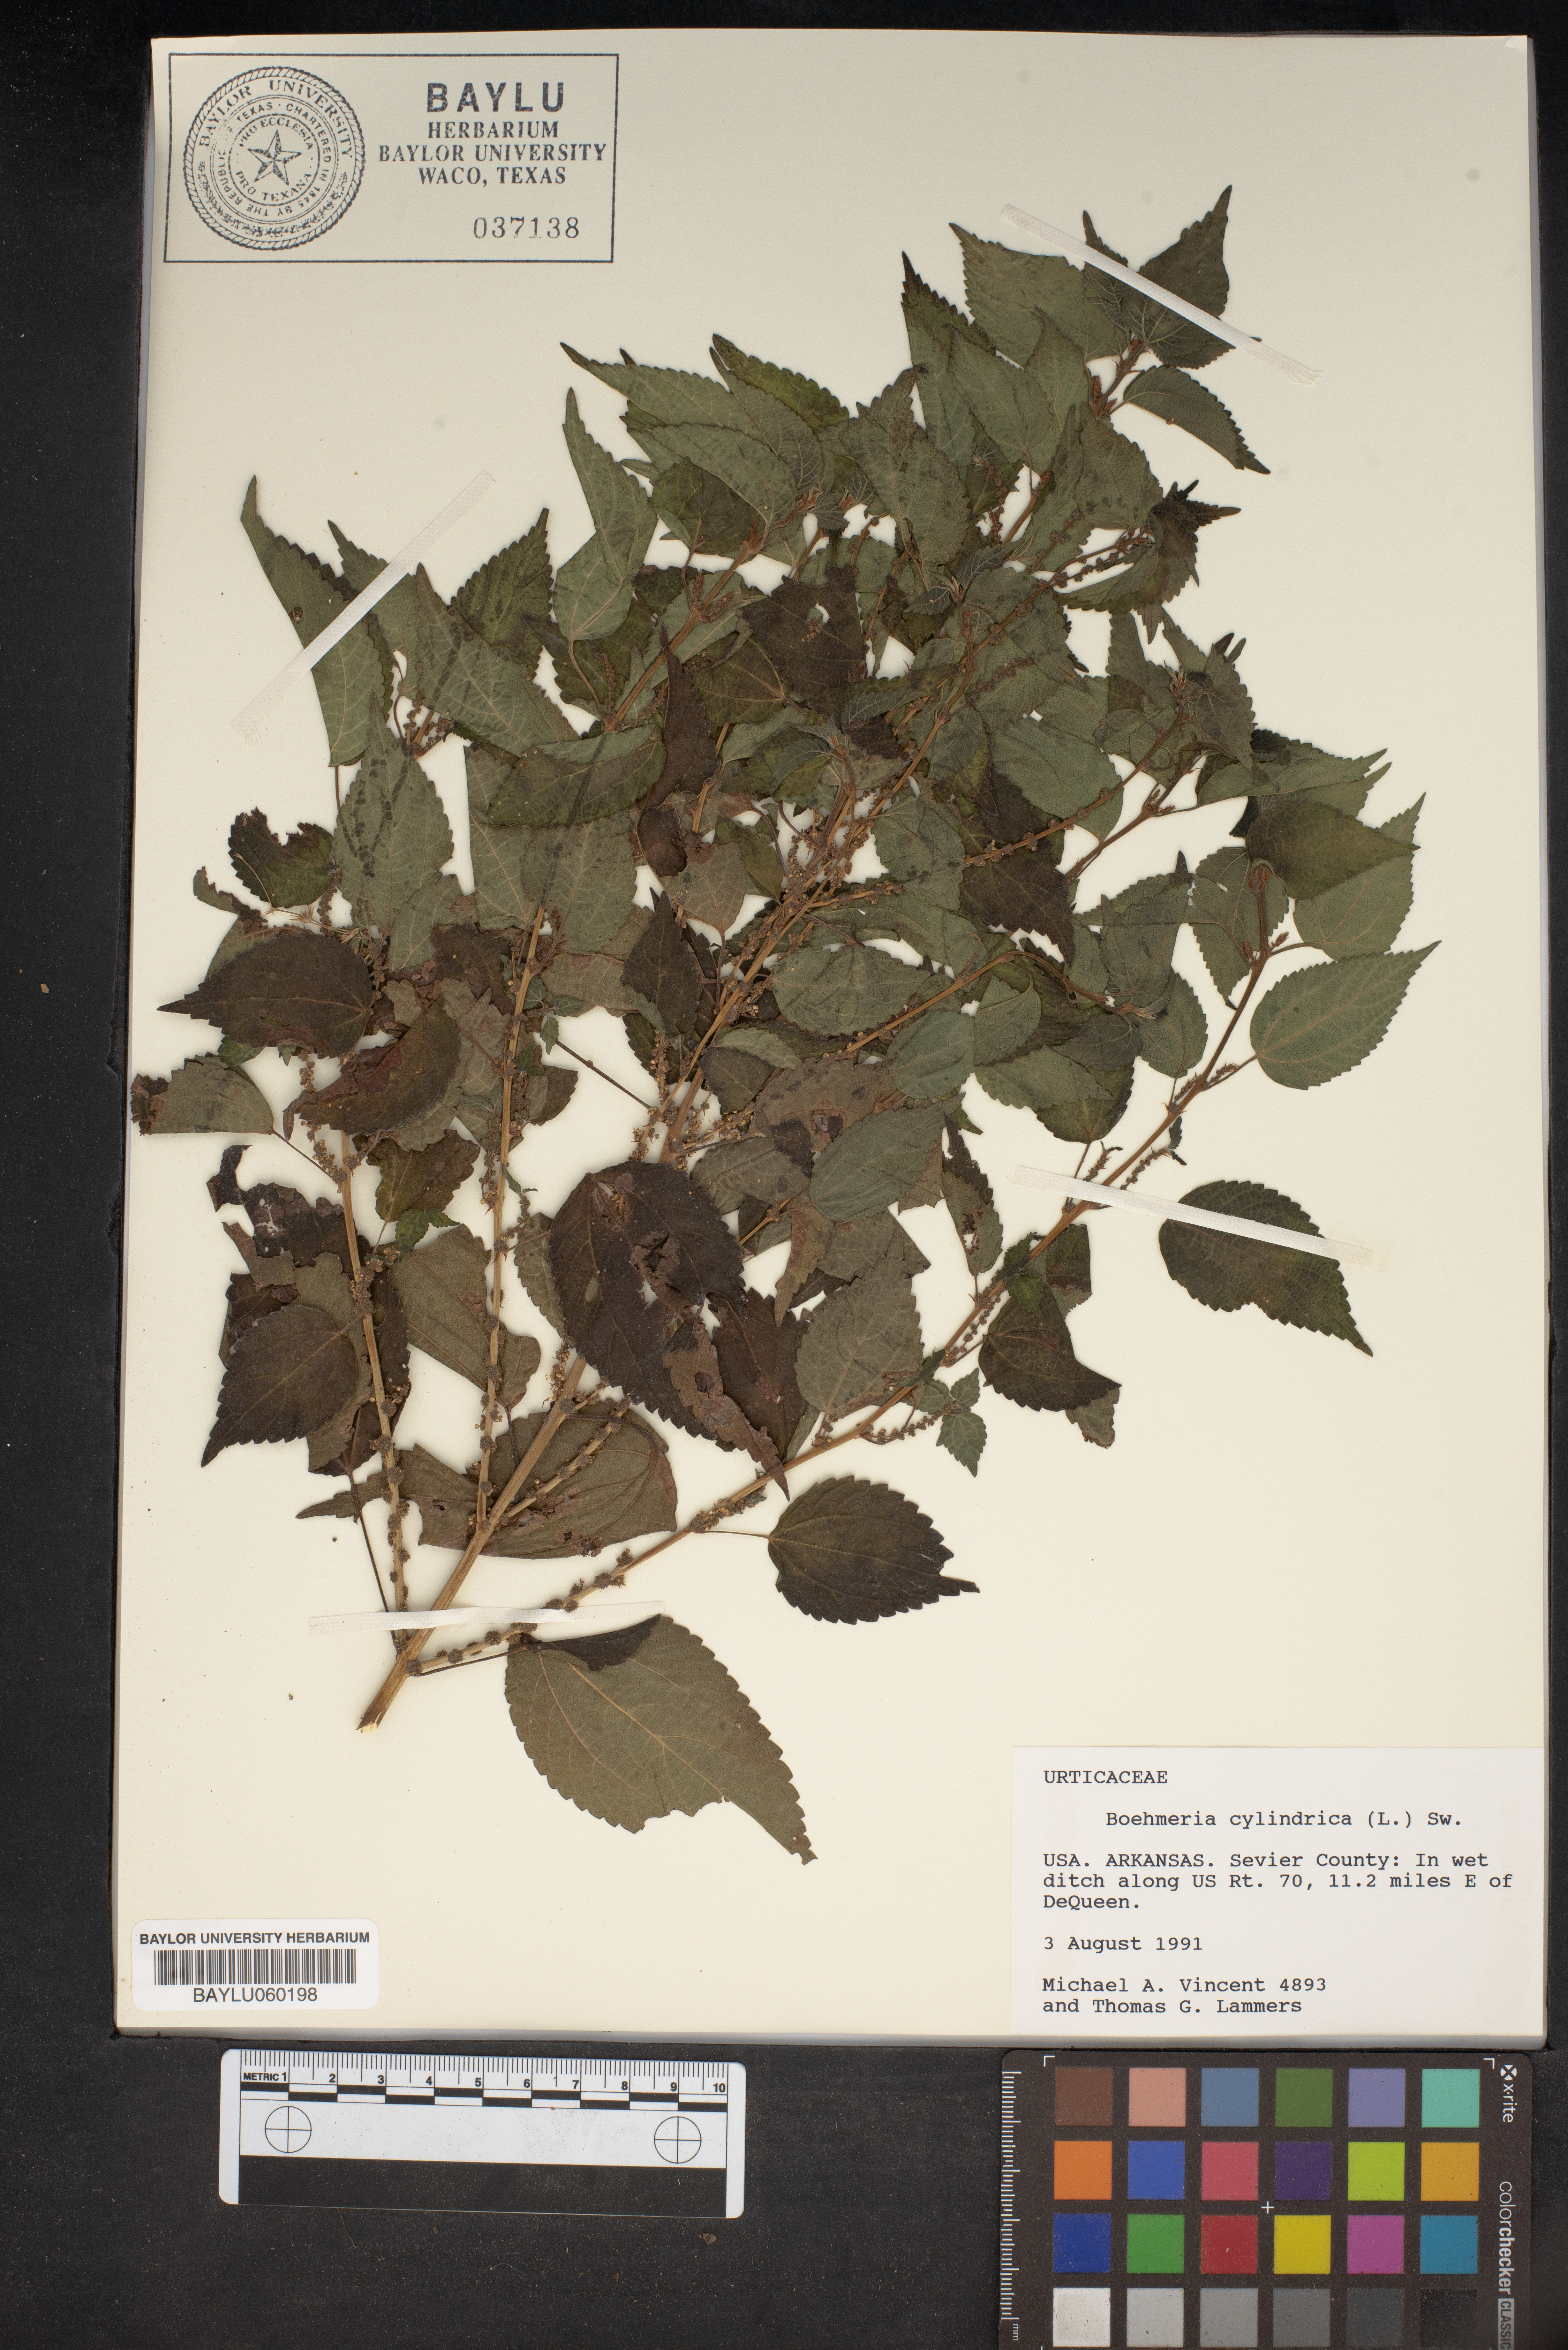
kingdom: Plantae
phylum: Tracheophyta
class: Magnoliopsida
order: Rosales
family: Urticaceae
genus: Boehmeria
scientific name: Boehmeria cylindrica
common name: Bog-hemp
